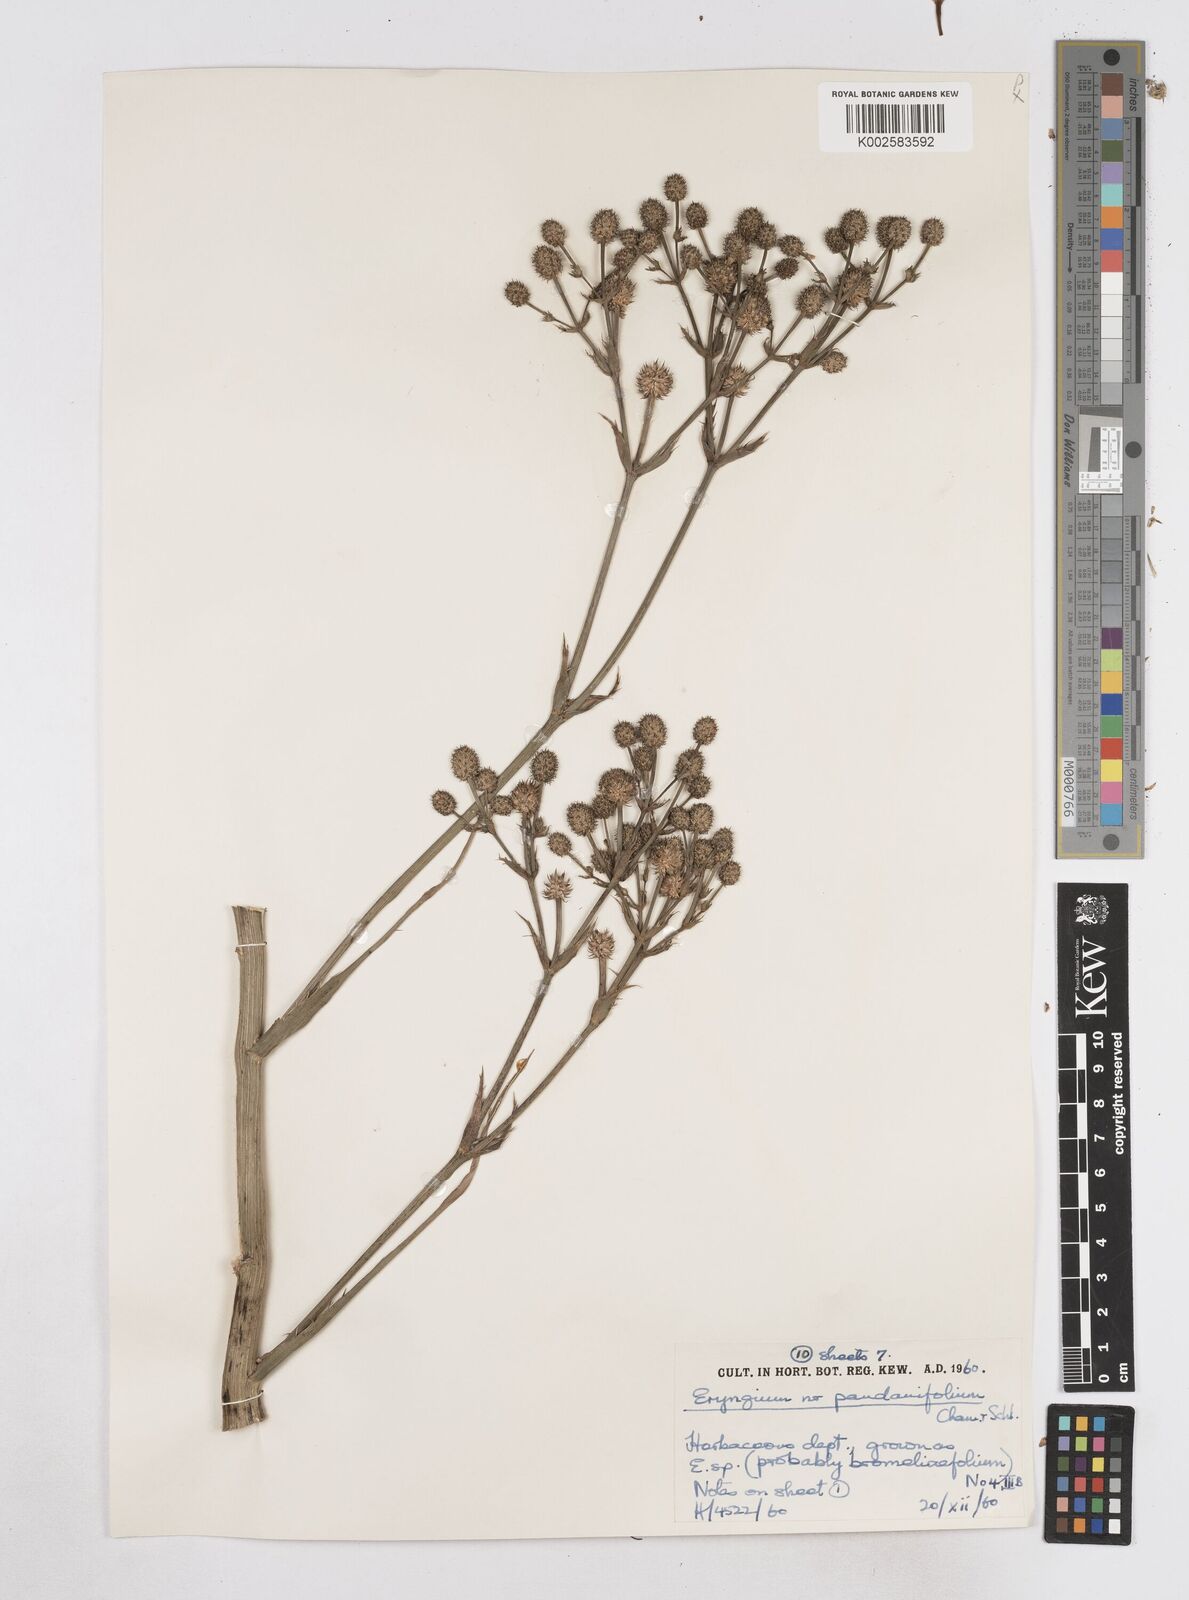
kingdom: Plantae
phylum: Tracheophyta
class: Magnoliopsida
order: Apiales
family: Apiaceae
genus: Eryngium
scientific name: Eryngium pandanifolium
